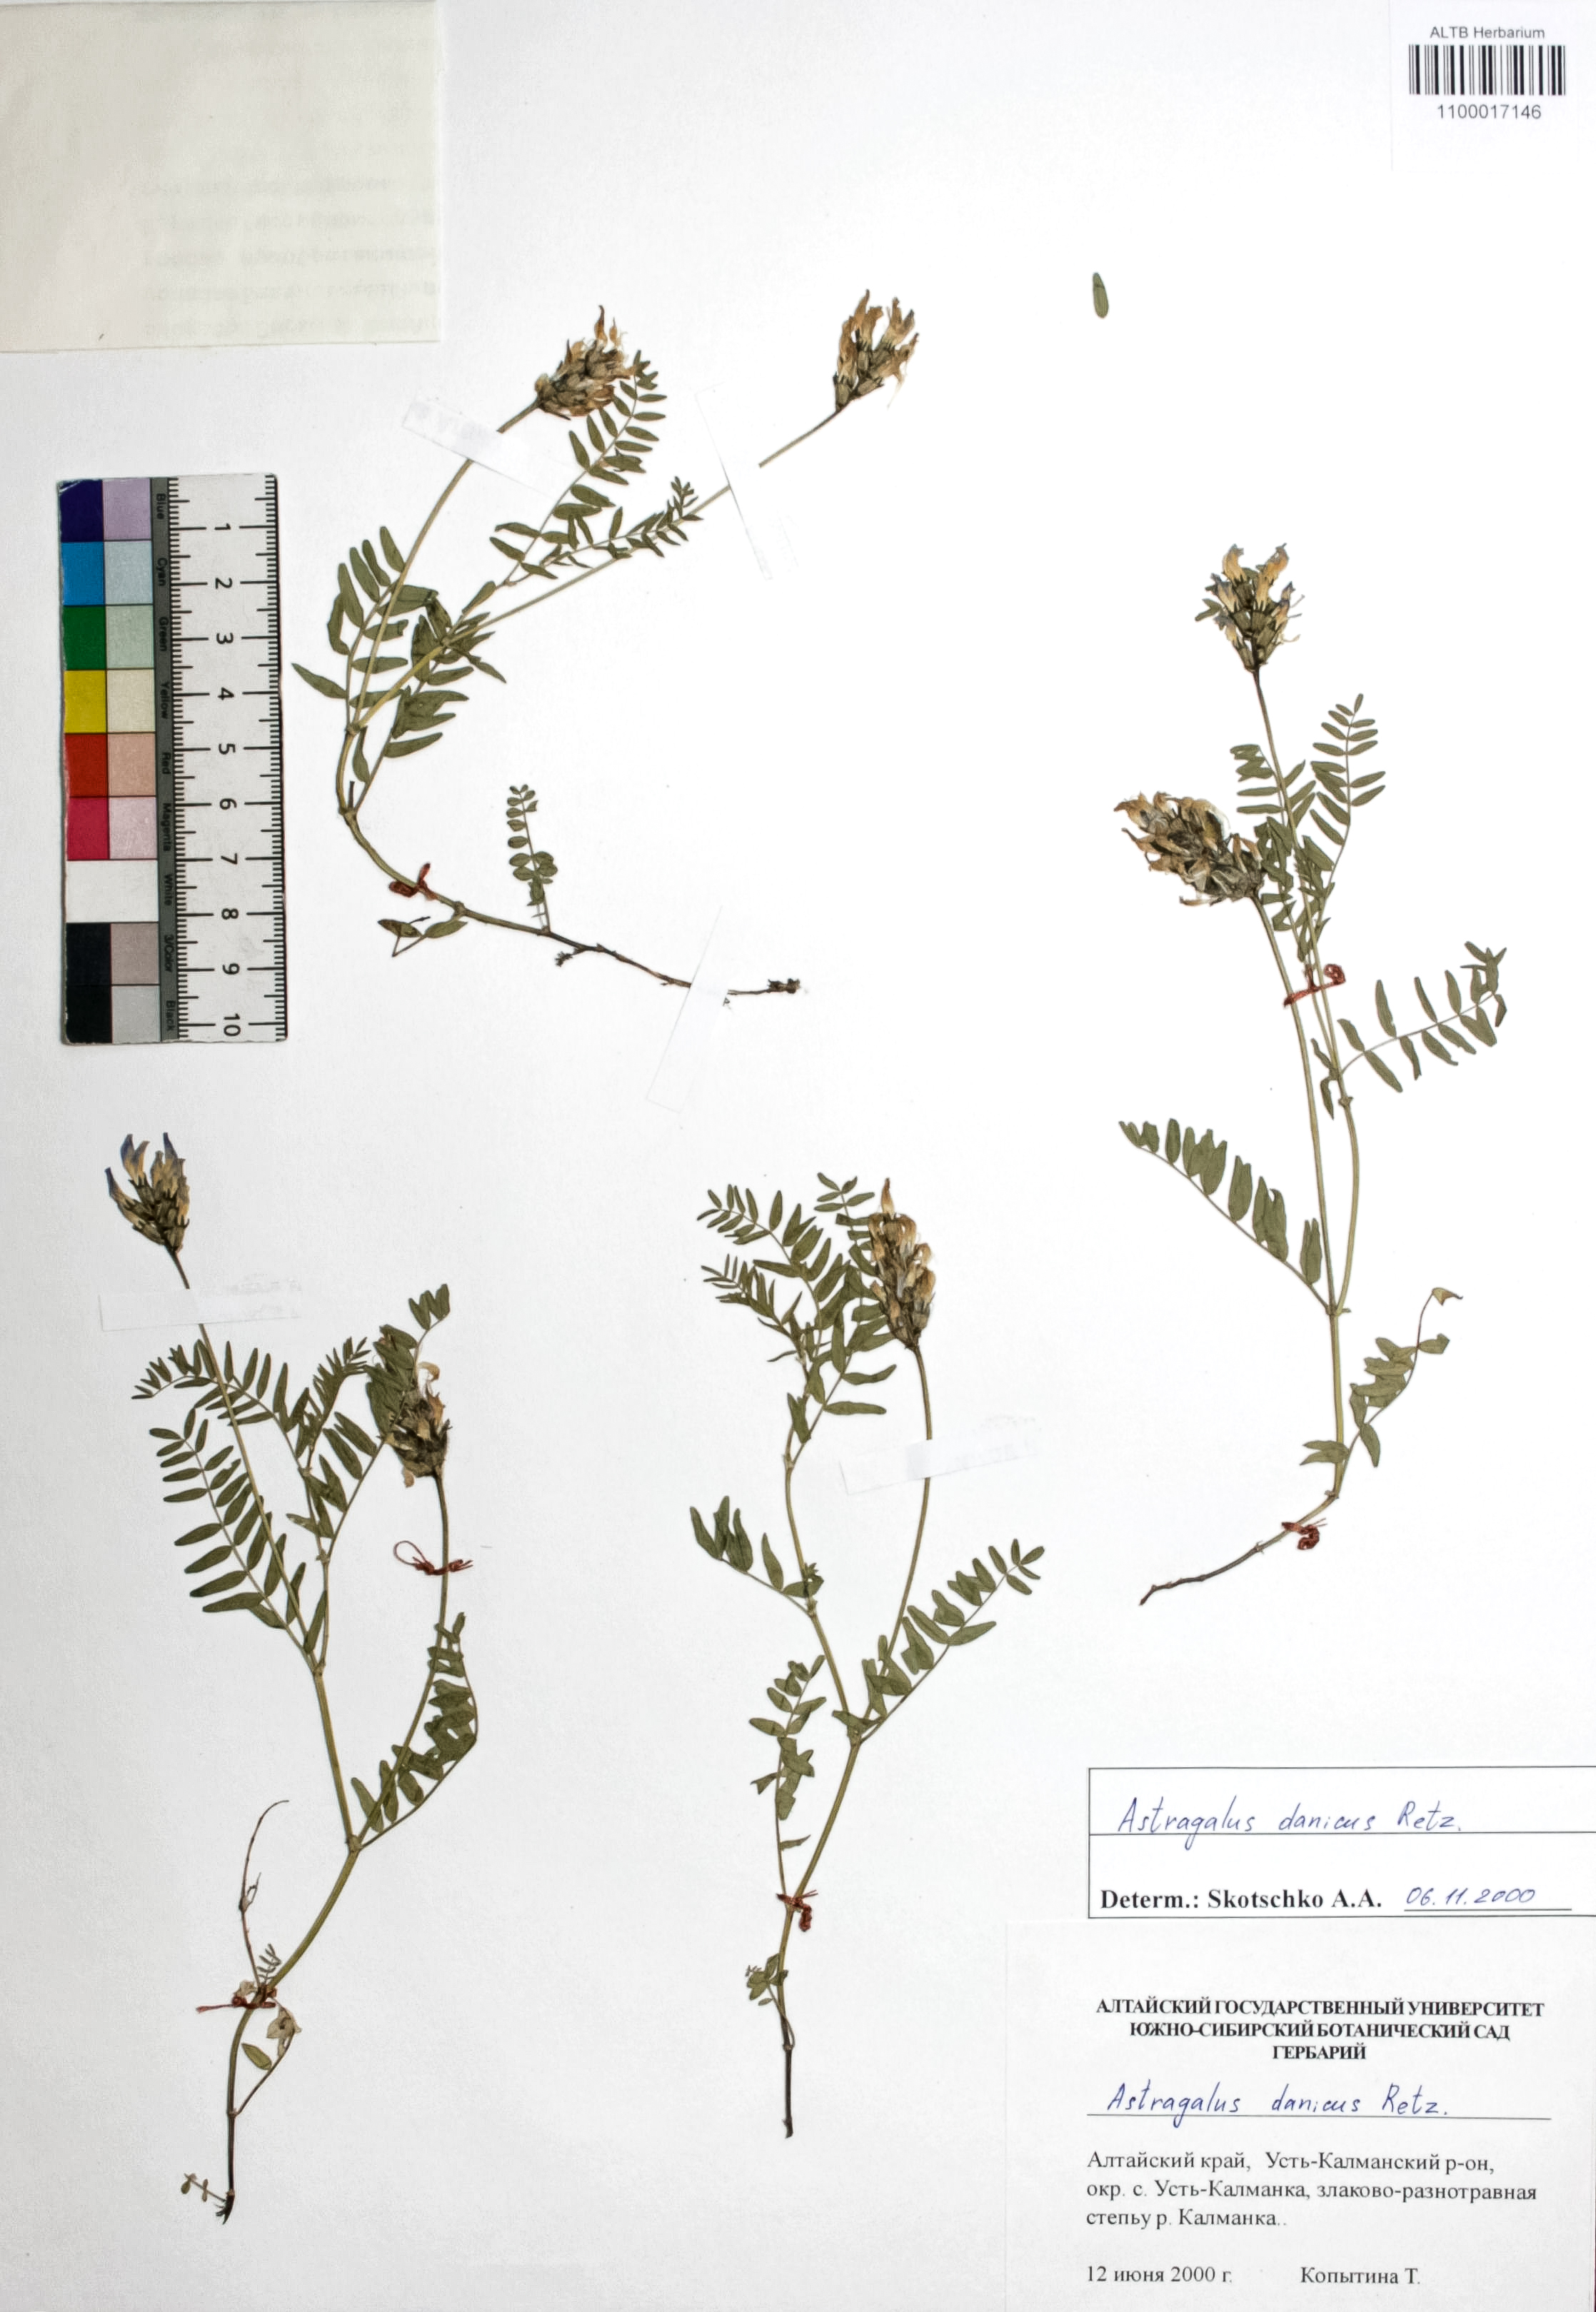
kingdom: Plantae
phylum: Tracheophyta
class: Magnoliopsida
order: Fabales
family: Fabaceae
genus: Astragalus
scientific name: Astragalus danicus
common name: Purple milk-vetch
